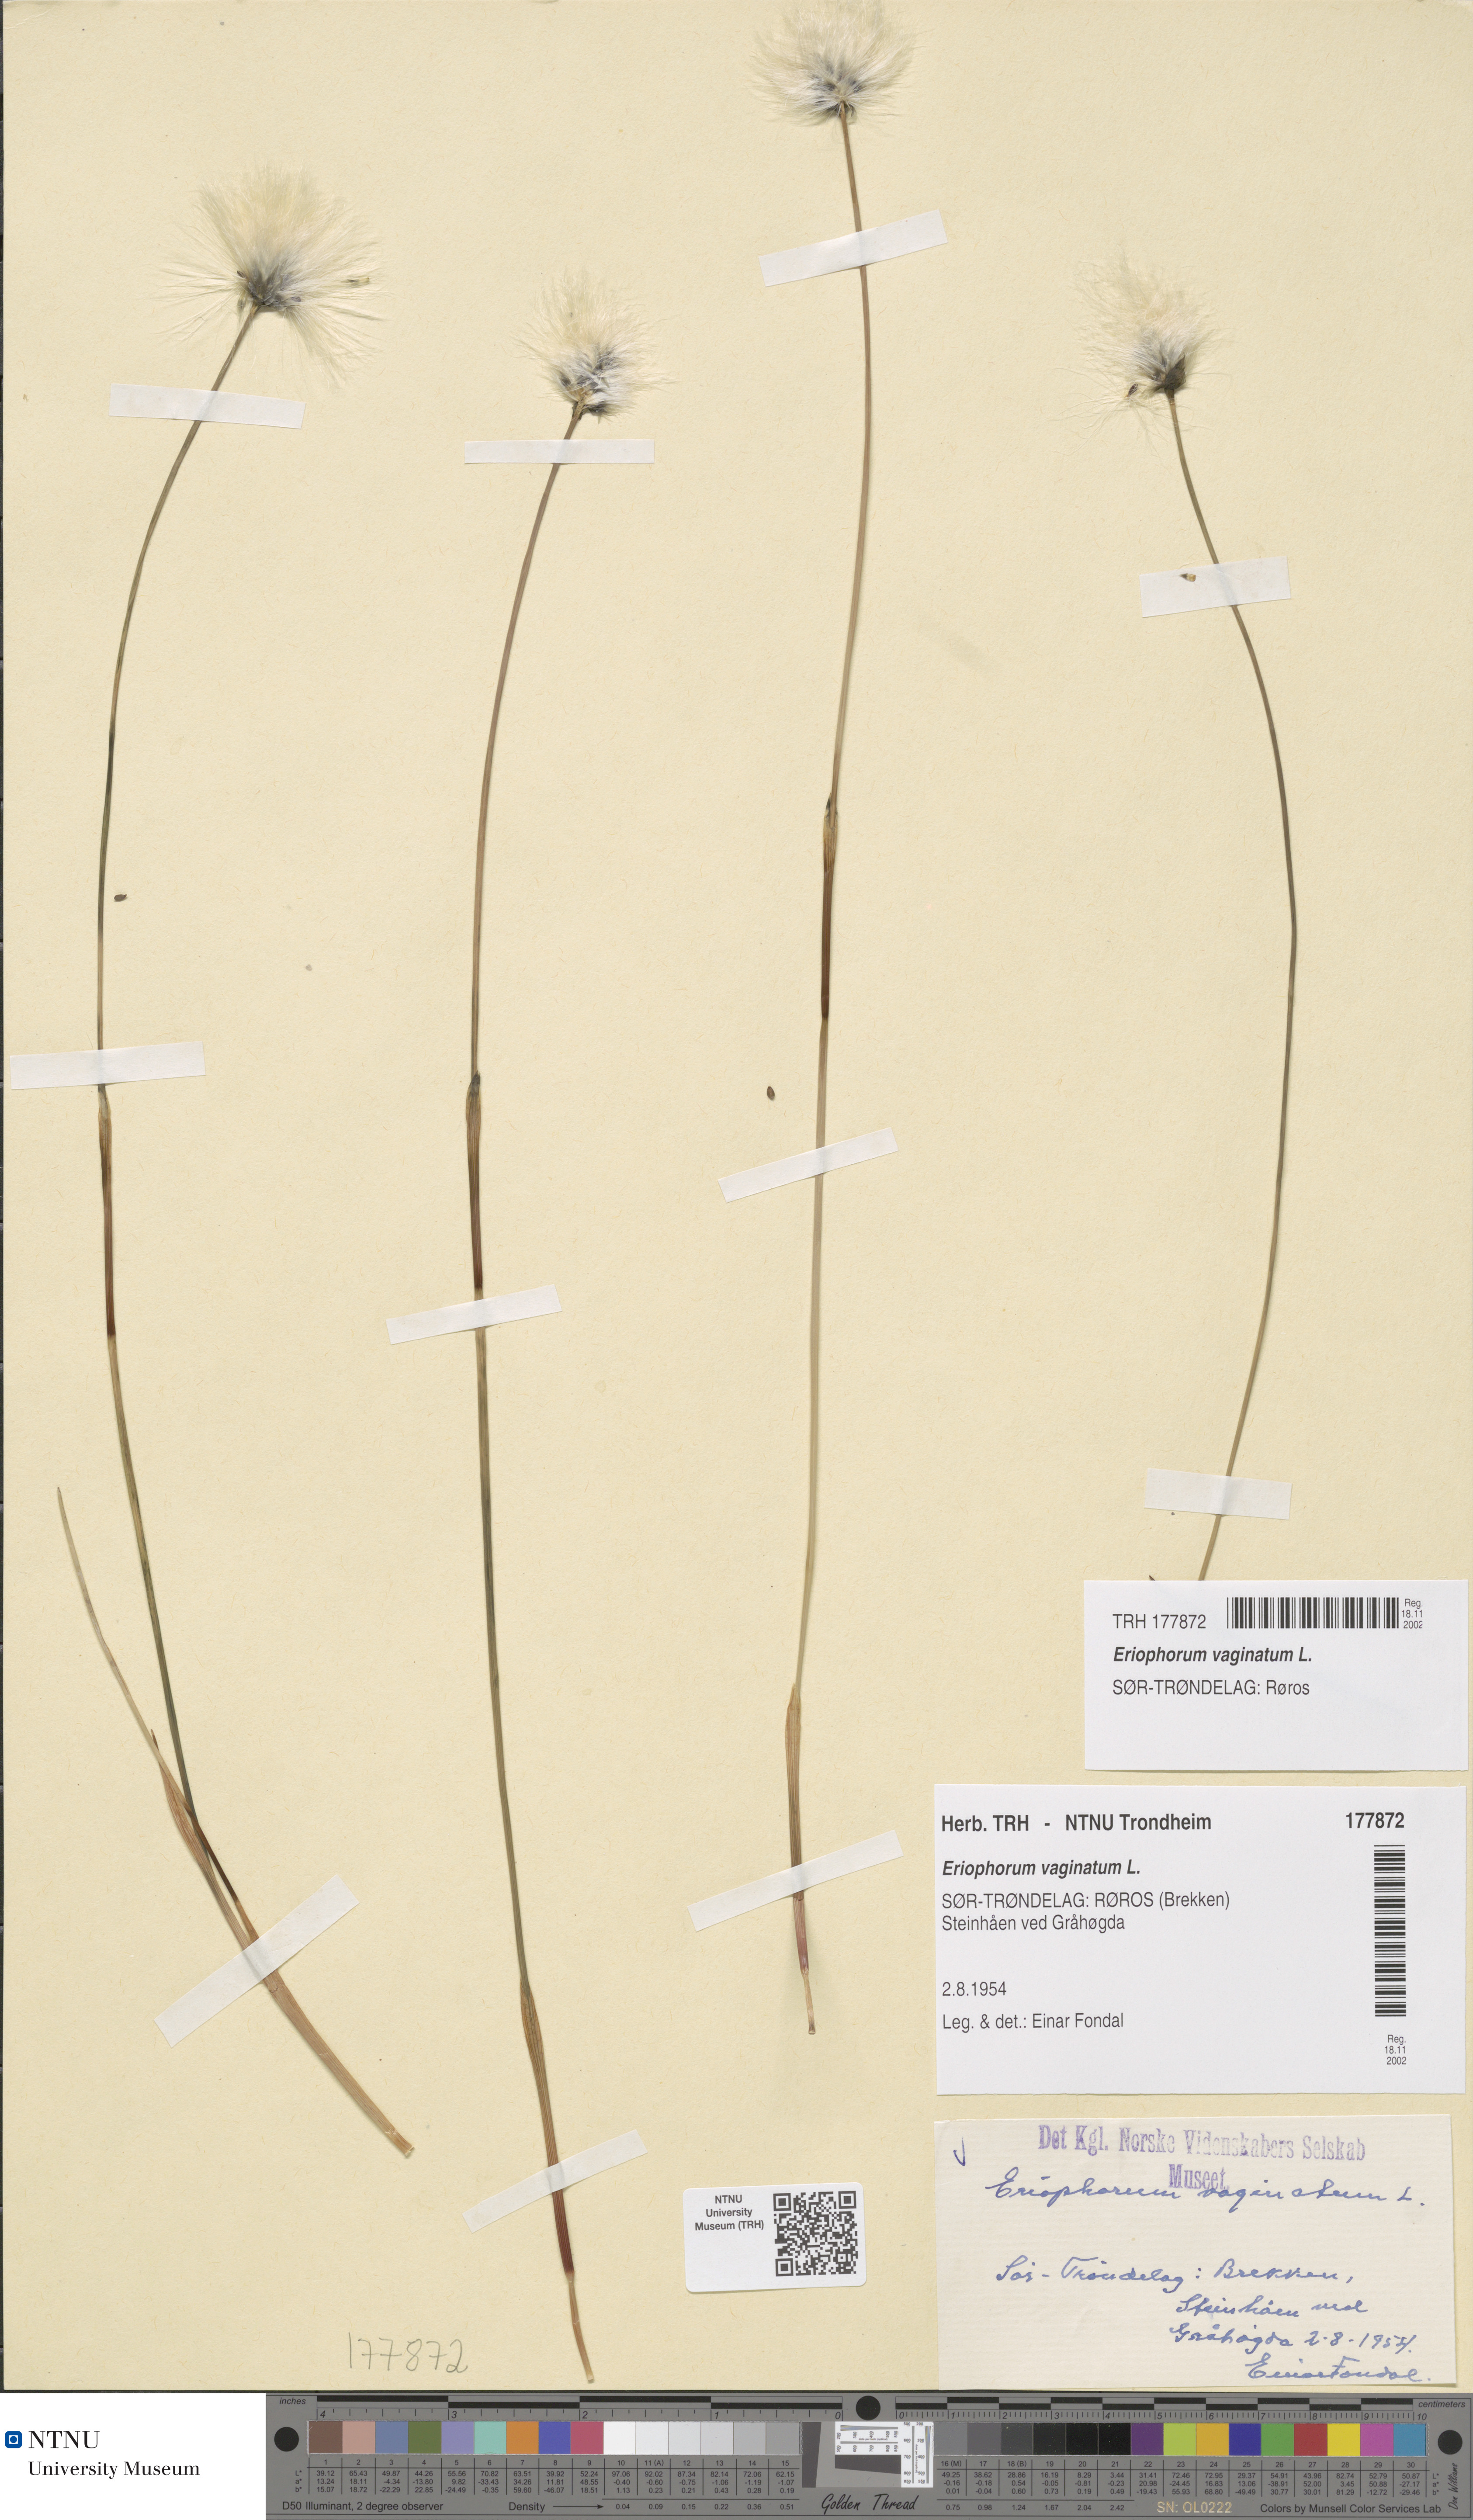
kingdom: Plantae
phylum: Tracheophyta
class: Liliopsida
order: Poales
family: Cyperaceae
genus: Eriophorum
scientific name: Eriophorum vaginatum
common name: Hare's-tail cottongrass
